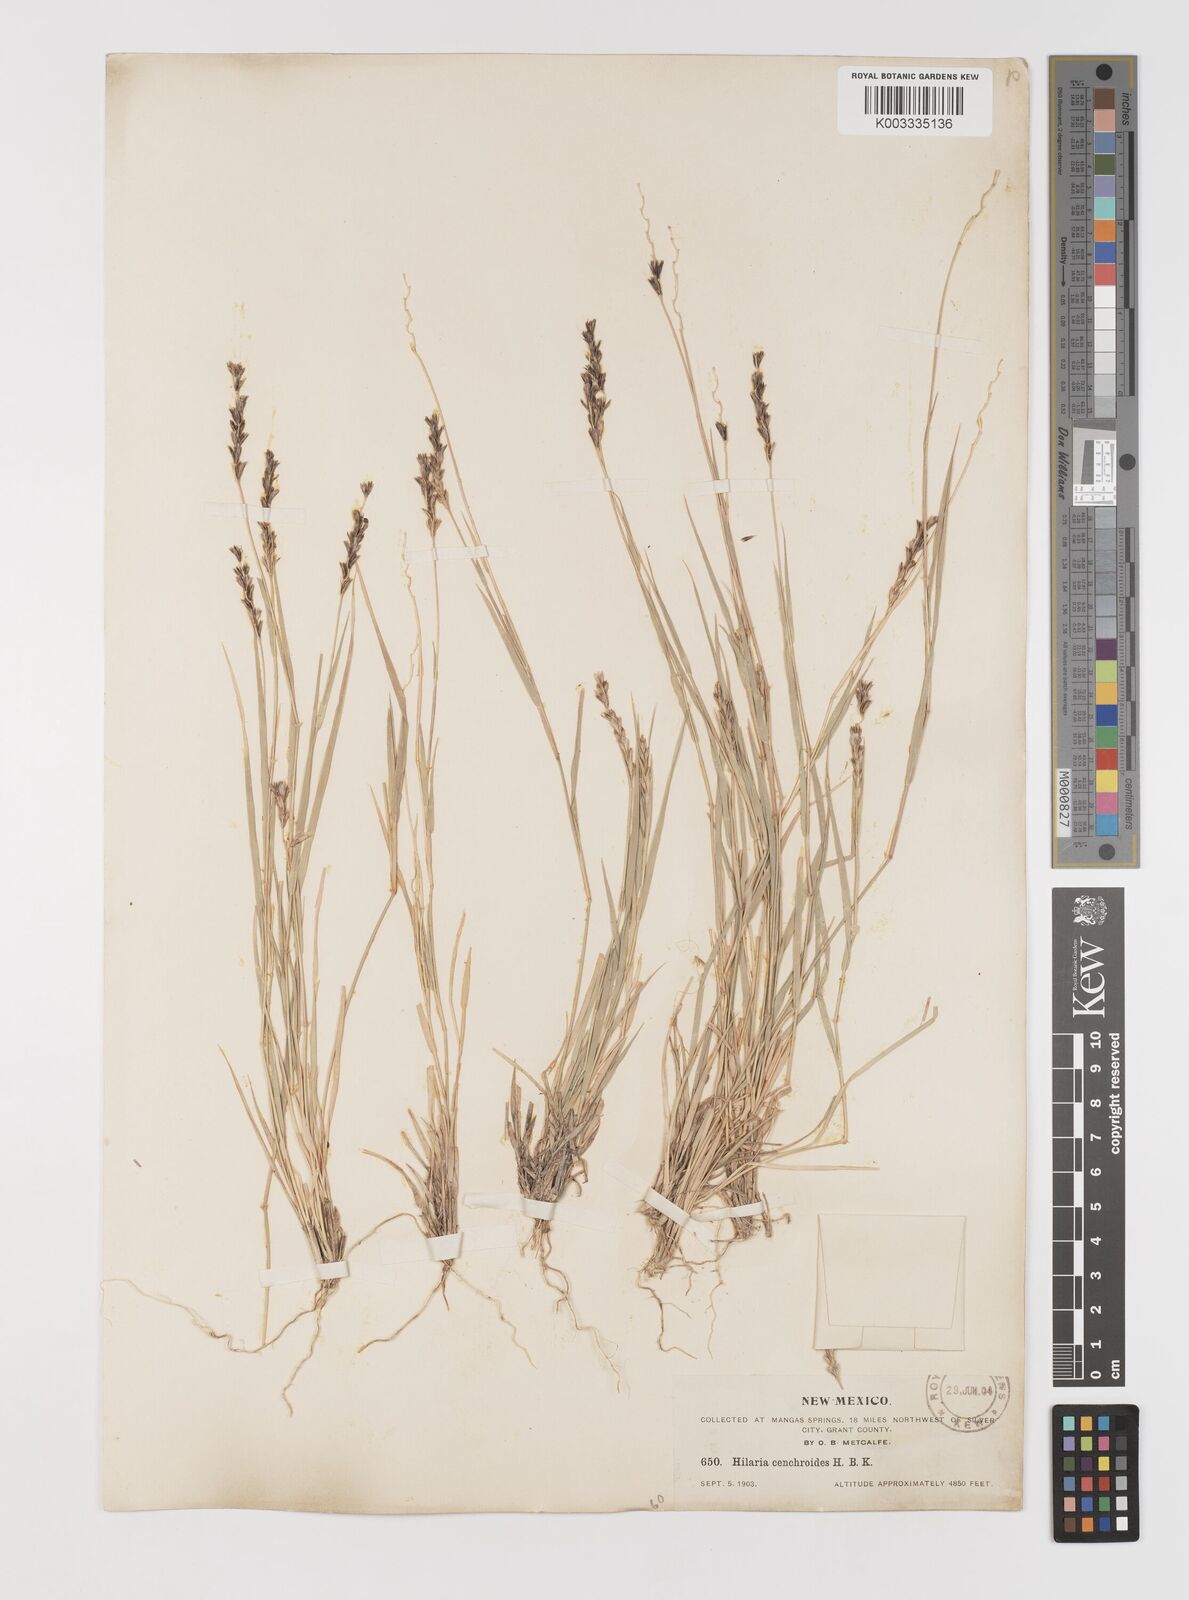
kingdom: Plantae
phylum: Tracheophyta
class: Liliopsida
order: Poales
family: Poaceae
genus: Hilaria
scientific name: Hilaria cenchroides
